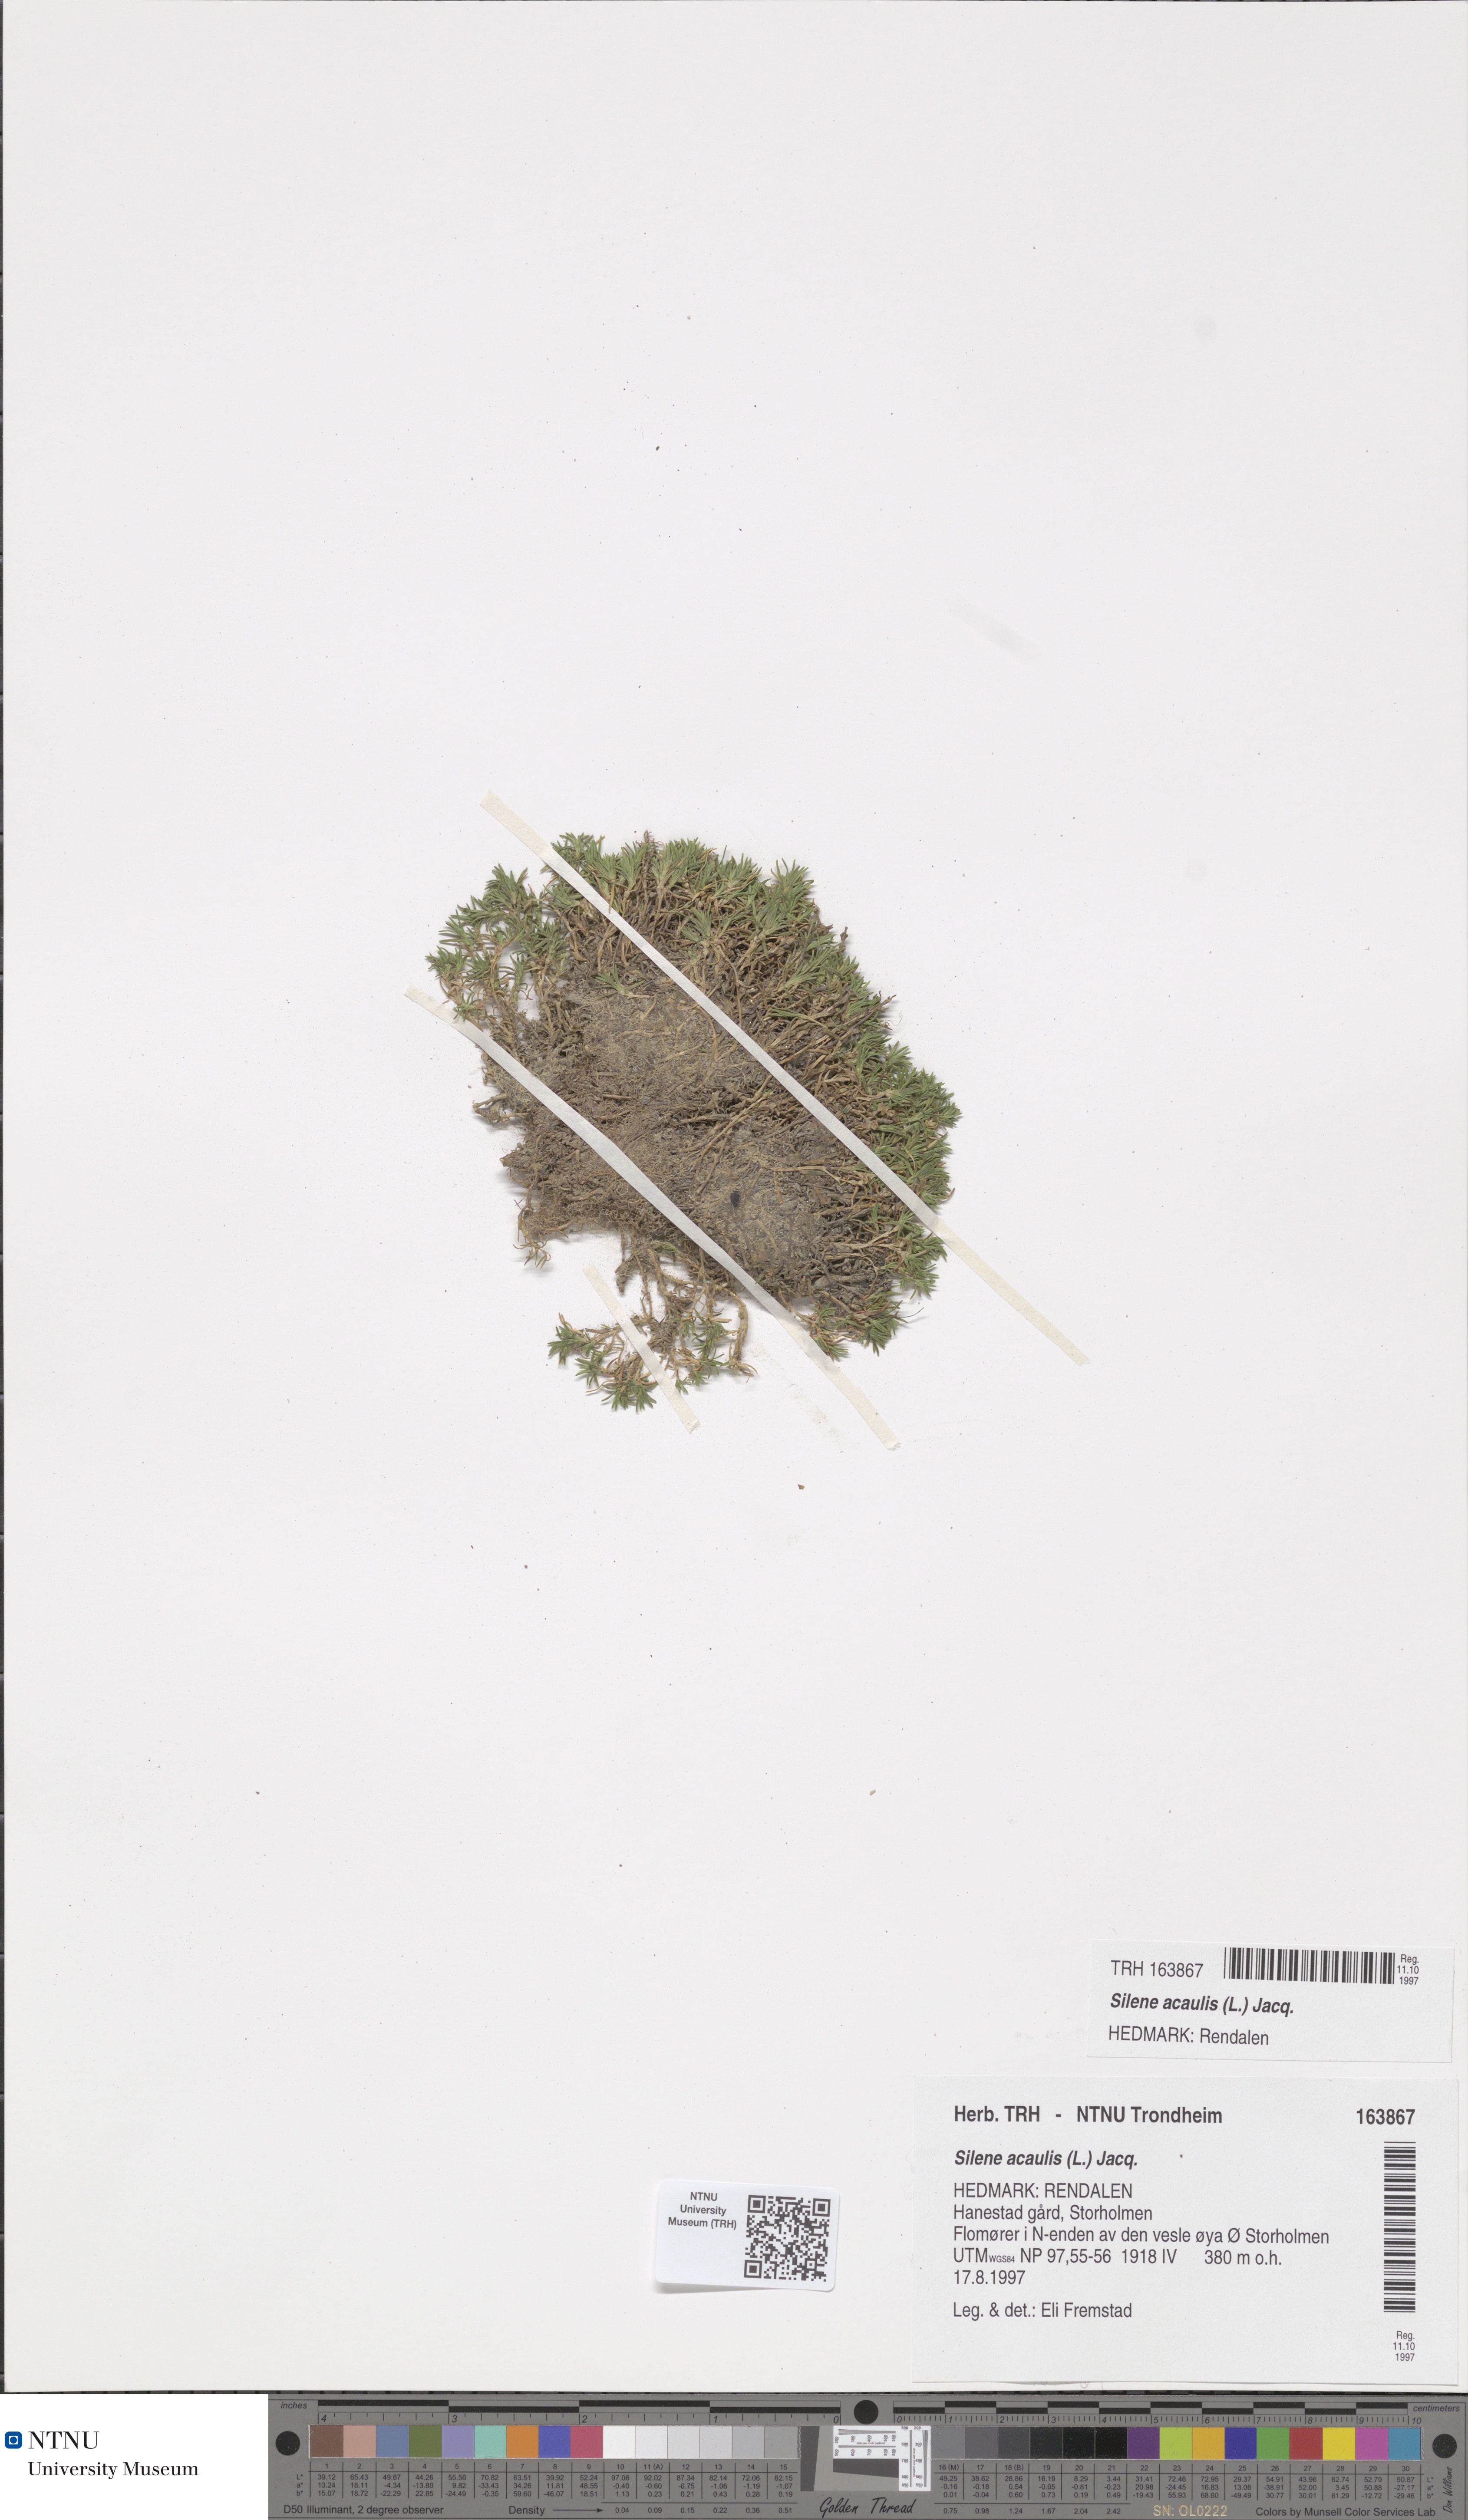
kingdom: Plantae
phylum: Tracheophyta
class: Magnoliopsida
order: Caryophyllales
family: Caryophyllaceae
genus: Silene
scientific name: Silene acaulis
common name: Moss campion
